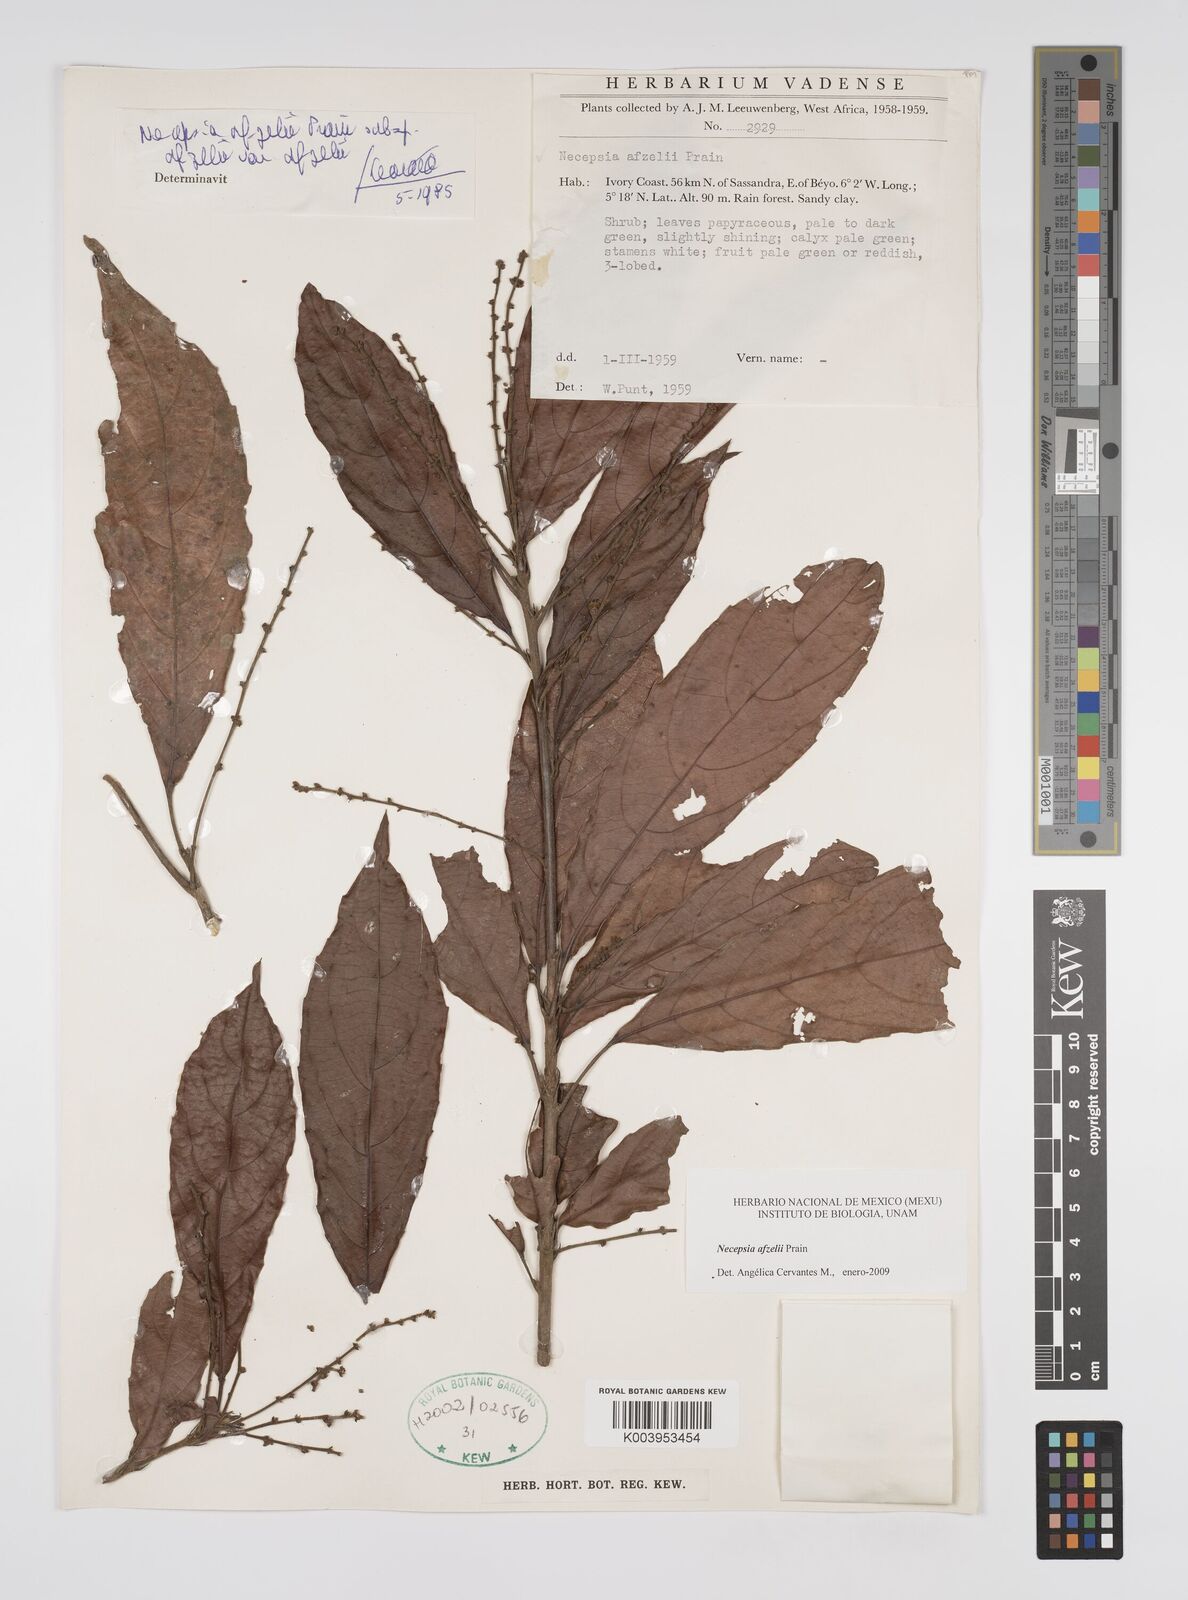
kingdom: Plantae
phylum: Tracheophyta
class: Magnoliopsida
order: Malpighiales
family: Euphorbiaceae
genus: Necepsia
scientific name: Necepsia afzelii
